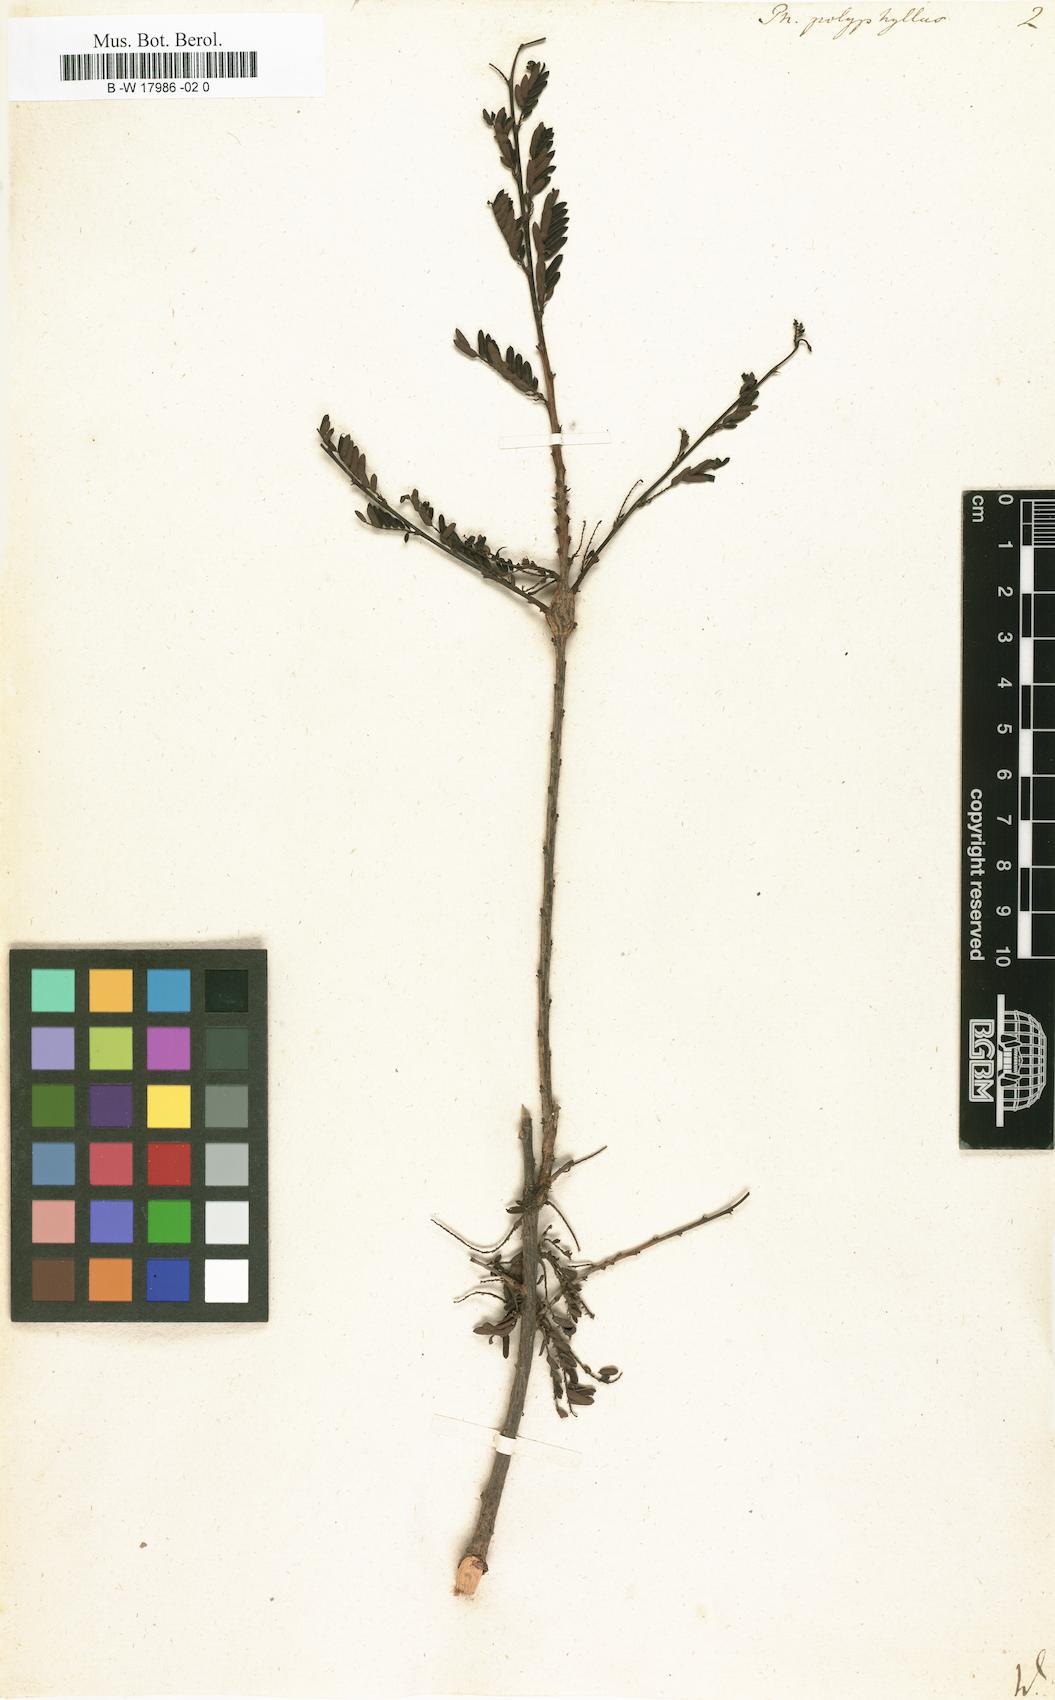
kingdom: Plantae
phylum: Tracheophyta
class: Magnoliopsida
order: Malpighiales
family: Phyllanthaceae
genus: Phyllanthus
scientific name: Phyllanthus polyphyllus
